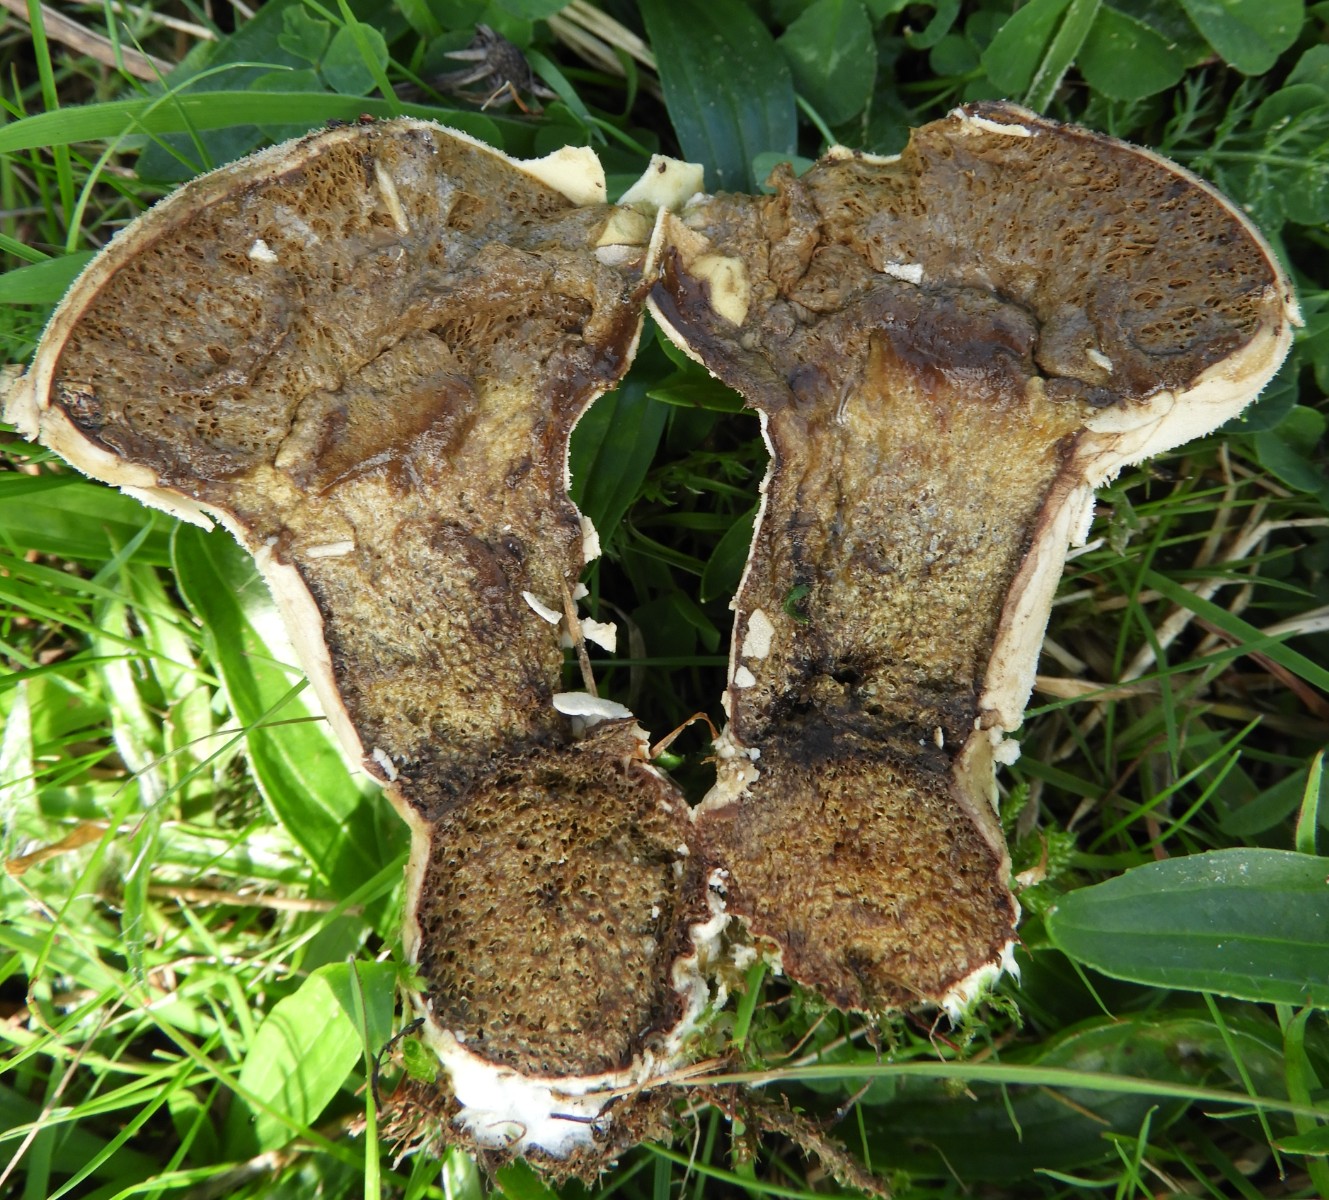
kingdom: Fungi
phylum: Basidiomycota
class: Agaricomycetes
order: Agaricales
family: Lycoperdaceae
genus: Lycoperdon
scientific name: Lycoperdon excipuliforme
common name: højstokket støvbold
